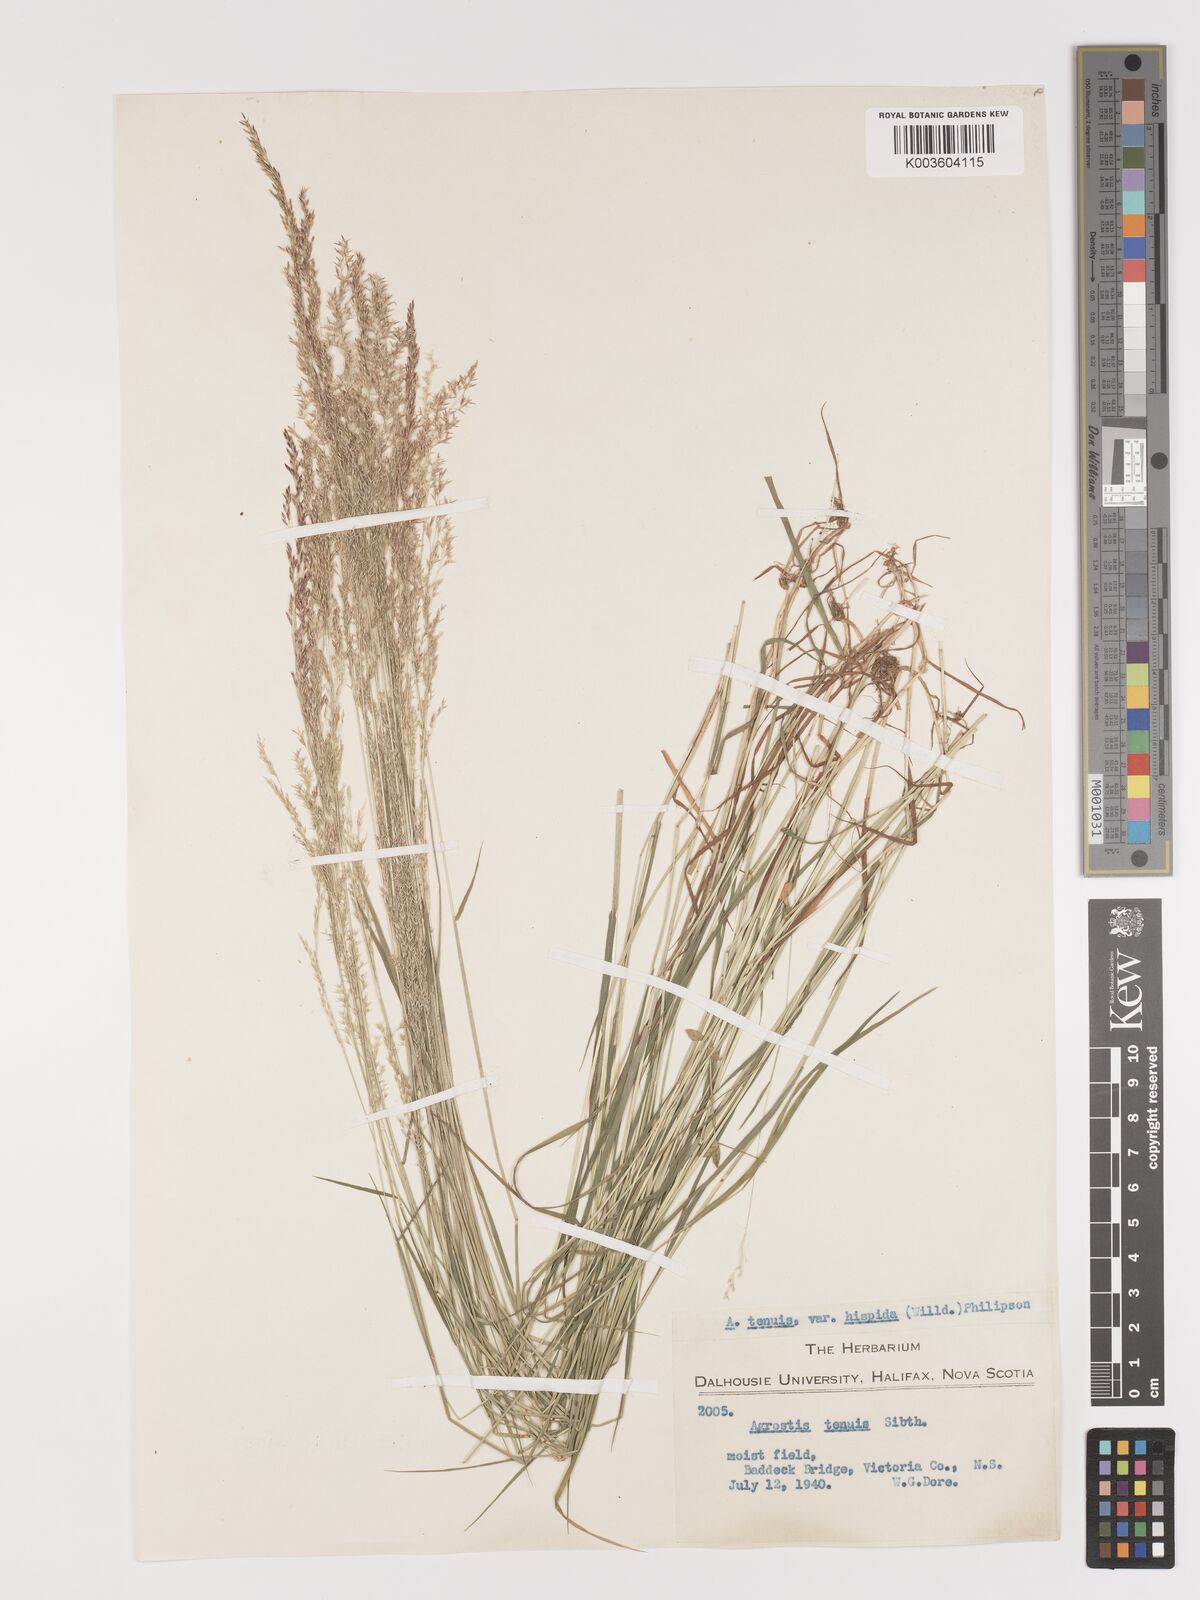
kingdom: Plantae
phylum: Tracheophyta
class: Liliopsida
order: Poales
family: Poaceae
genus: Agrostis
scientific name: Agrostis capillaris
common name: Colonial bentgrass
